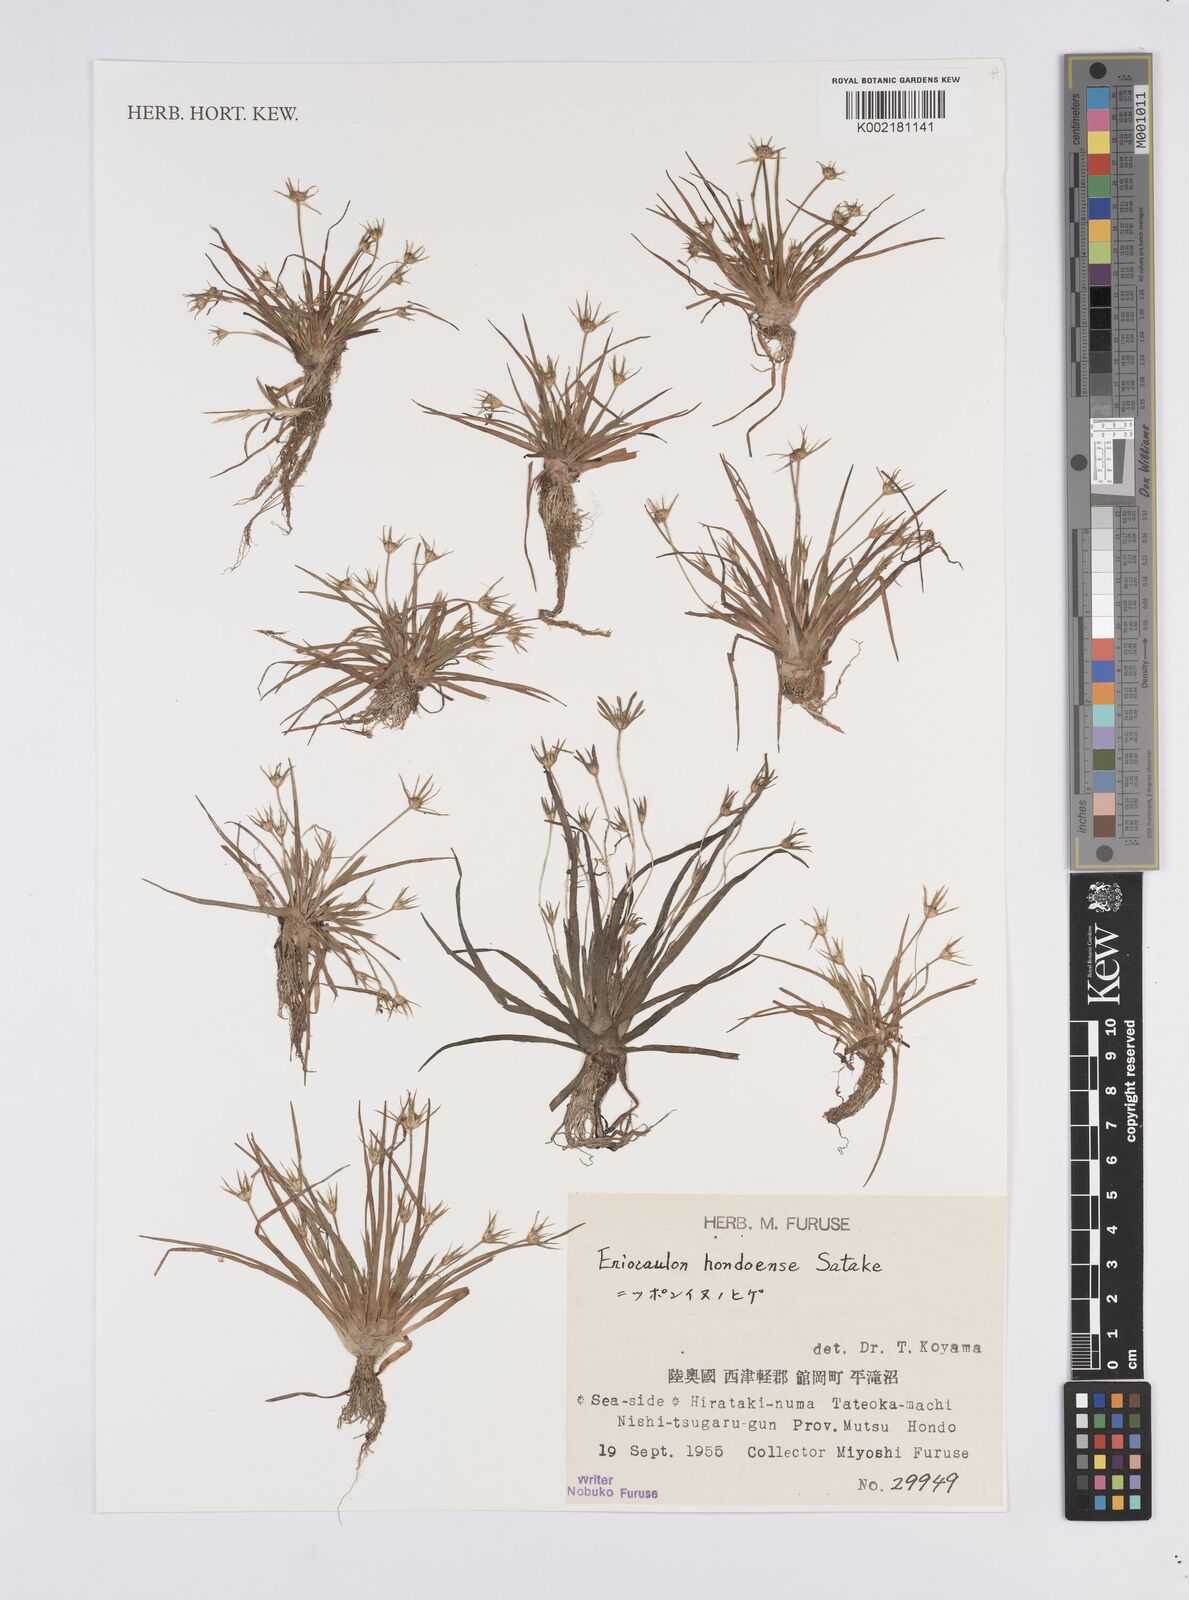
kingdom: Plantae
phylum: Tracheophyta
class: Liliopsida
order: Poales
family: Eriocaulaceae
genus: Eriocaulon
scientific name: Eriocaulon taquetii
